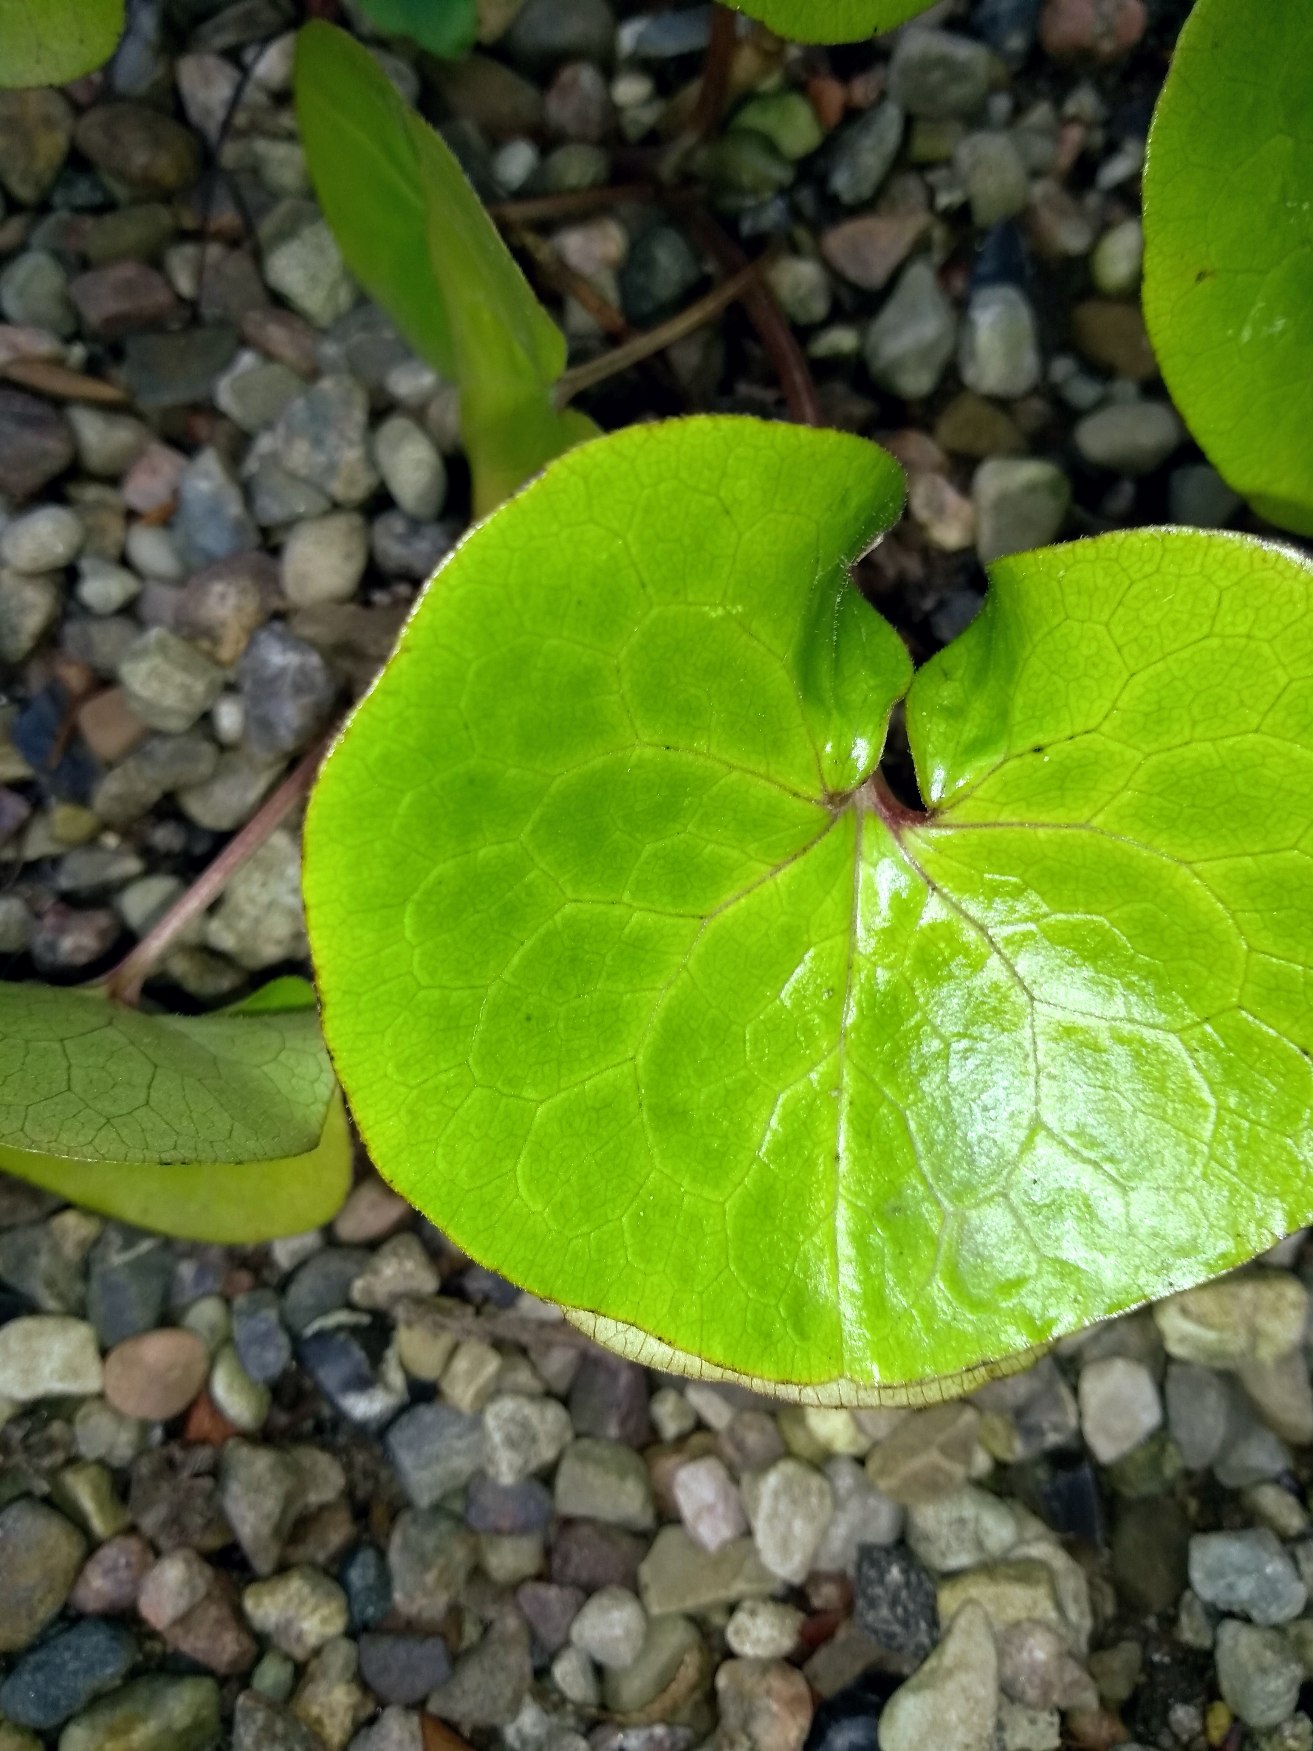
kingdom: Plantae
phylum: Tracheophyta
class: Magnoliopsida
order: Piperales
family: Aristolochiaceae
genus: Asarum
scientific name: Asarum europaeum
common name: Hasselurt
